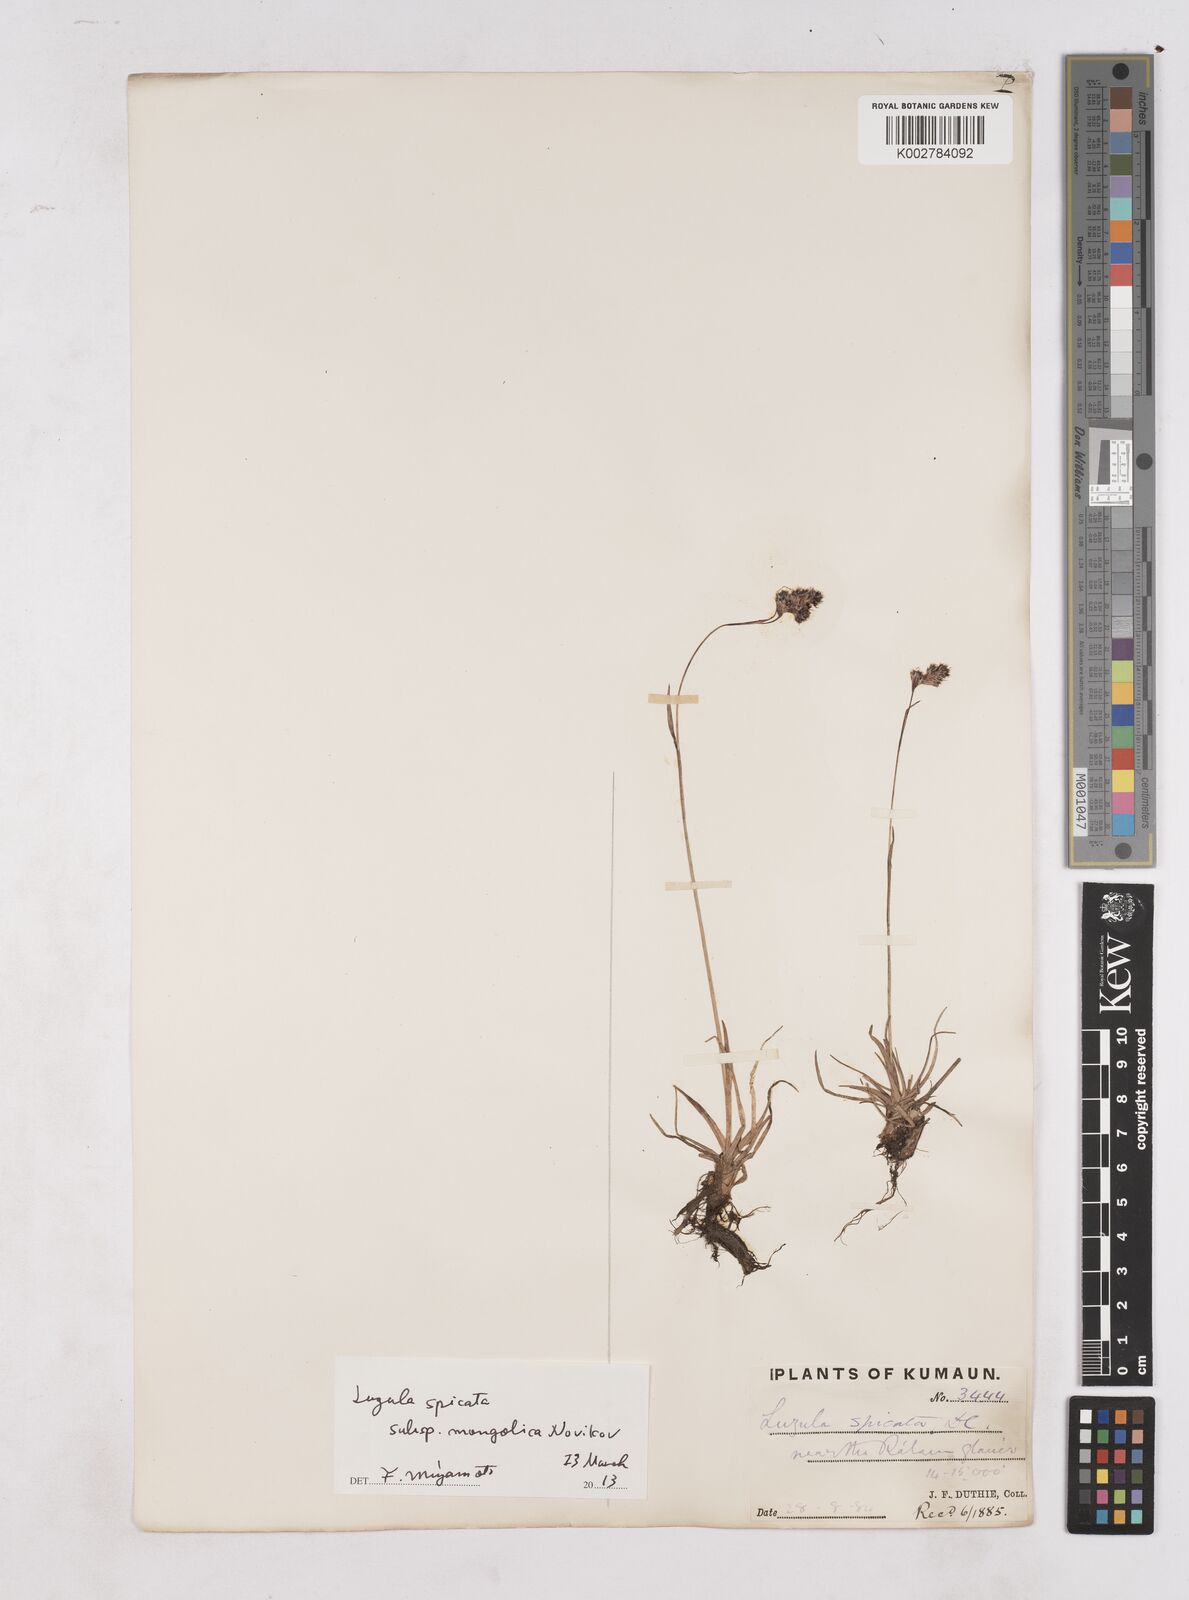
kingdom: Plantae
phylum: Tracheophyta
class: Liliopsida
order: Poales
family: Juncaceae
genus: Luzula
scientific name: Luzula spicata
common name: Spiked wood-rush
